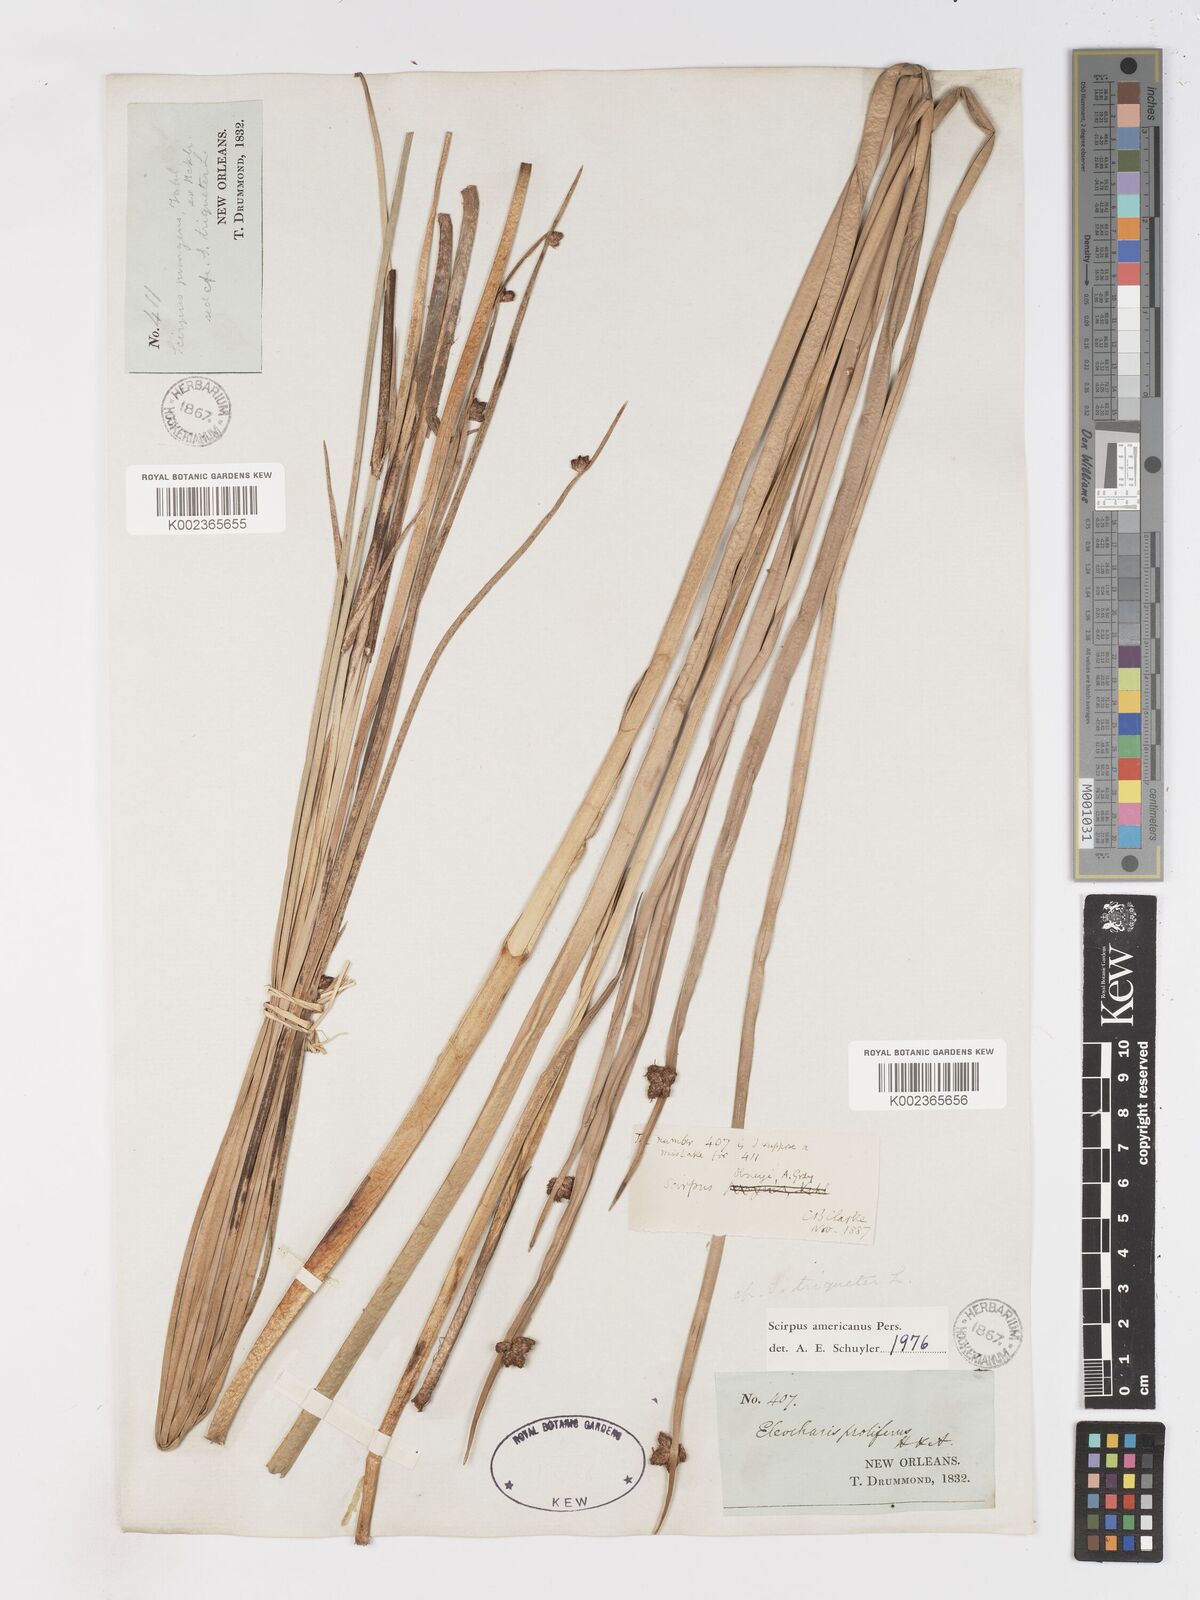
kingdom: Plantae
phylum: Tracheophyta
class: Liliopsida
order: Poales
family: Cyperaceae
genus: Schoenoplectus
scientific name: Schoenoplectus americanus
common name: American three-square bulrush
